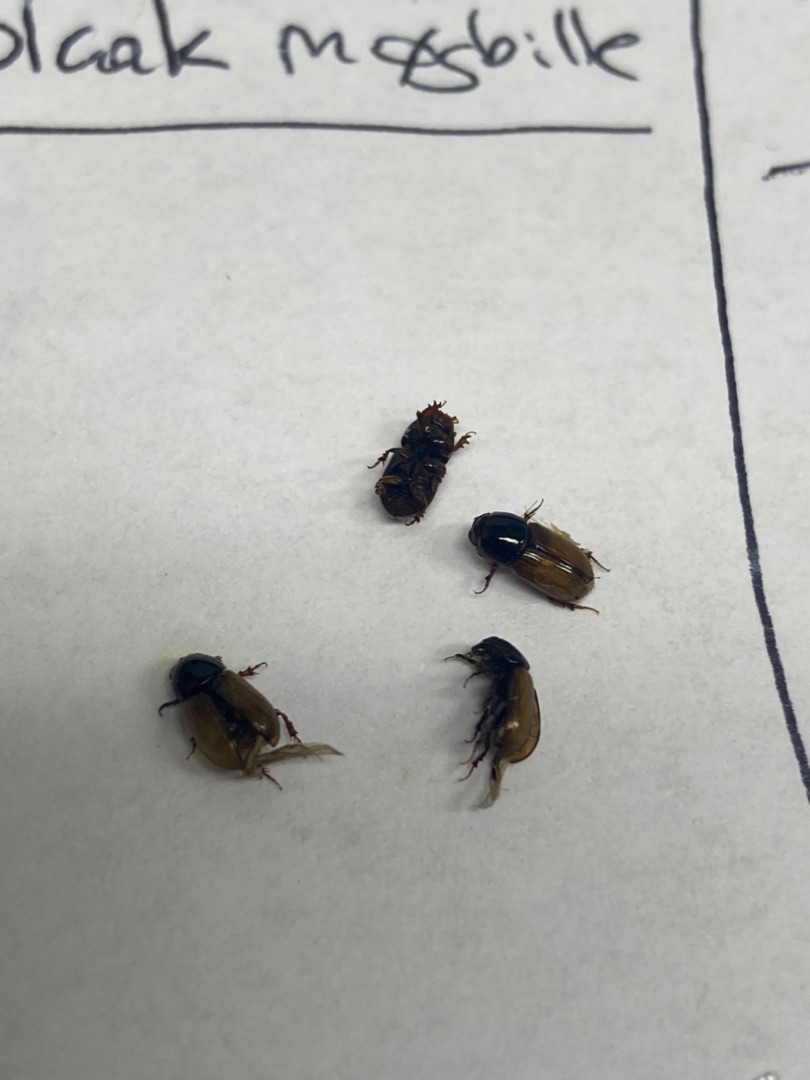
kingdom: Animalia
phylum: Arthropoda
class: Insecta
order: Coleoptera
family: Scarabaeidae
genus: Bodiloides
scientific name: Bodiloides ictericus
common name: Slank møgbille
